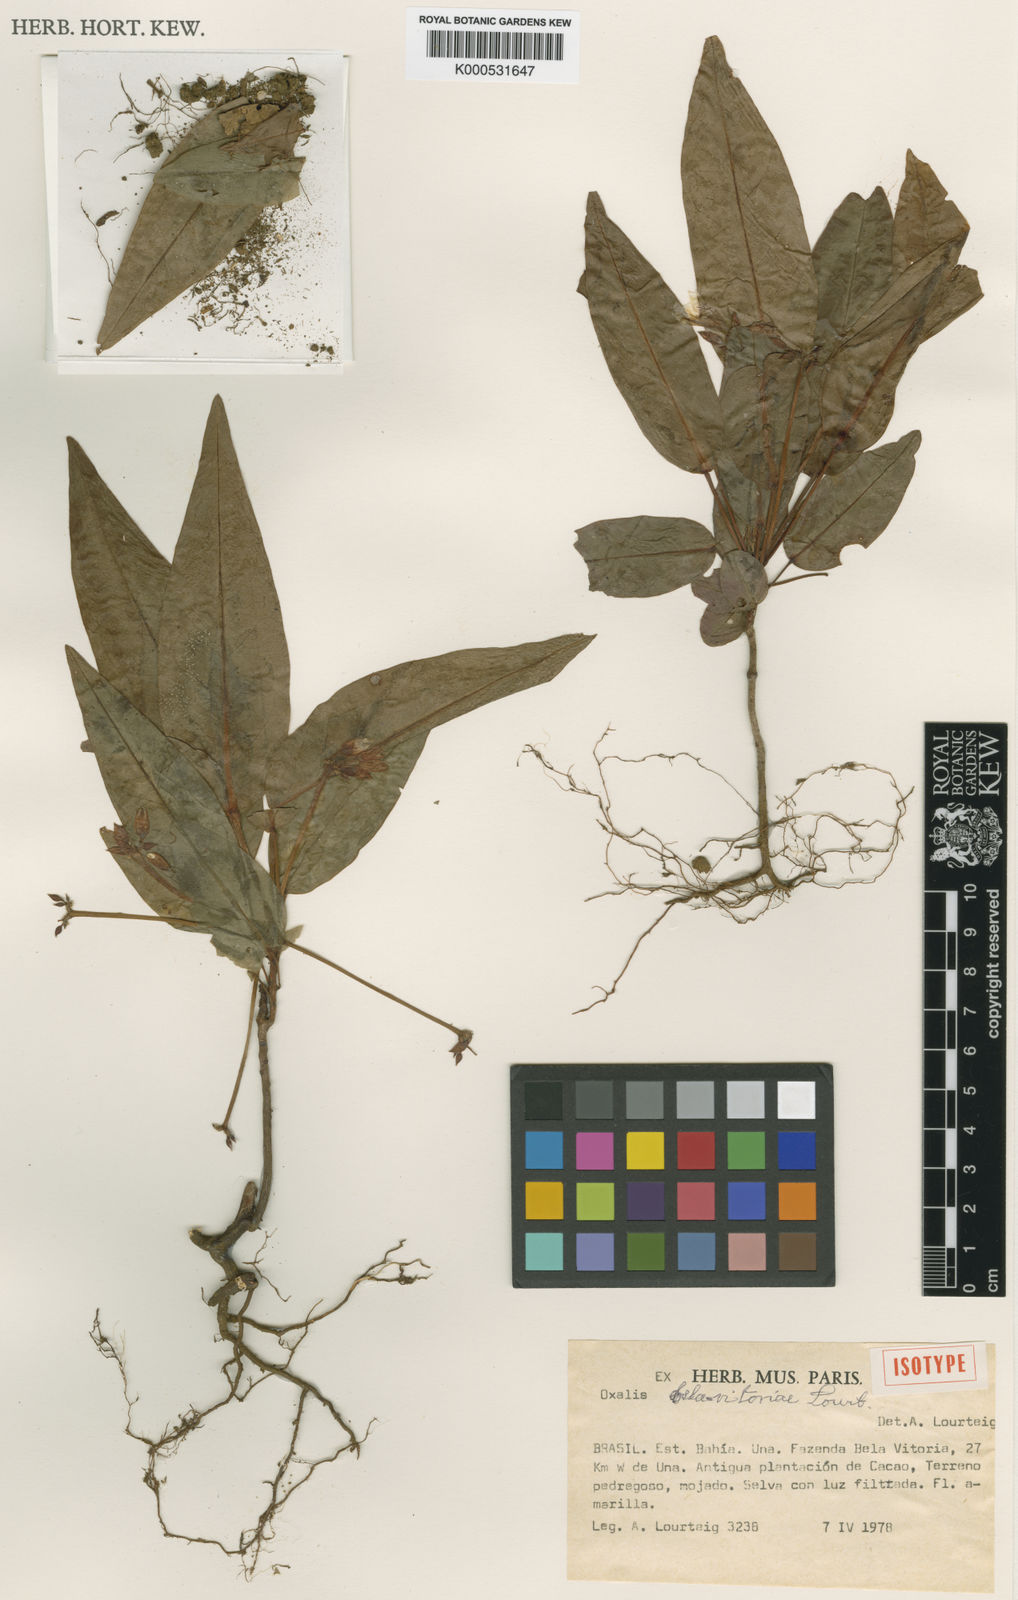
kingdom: Plantae
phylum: Tracheophyta
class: Magnoliopsida
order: Oxalidales
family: Oxalidaceae
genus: Oxalis
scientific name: Oxalis bela-vitoriae
